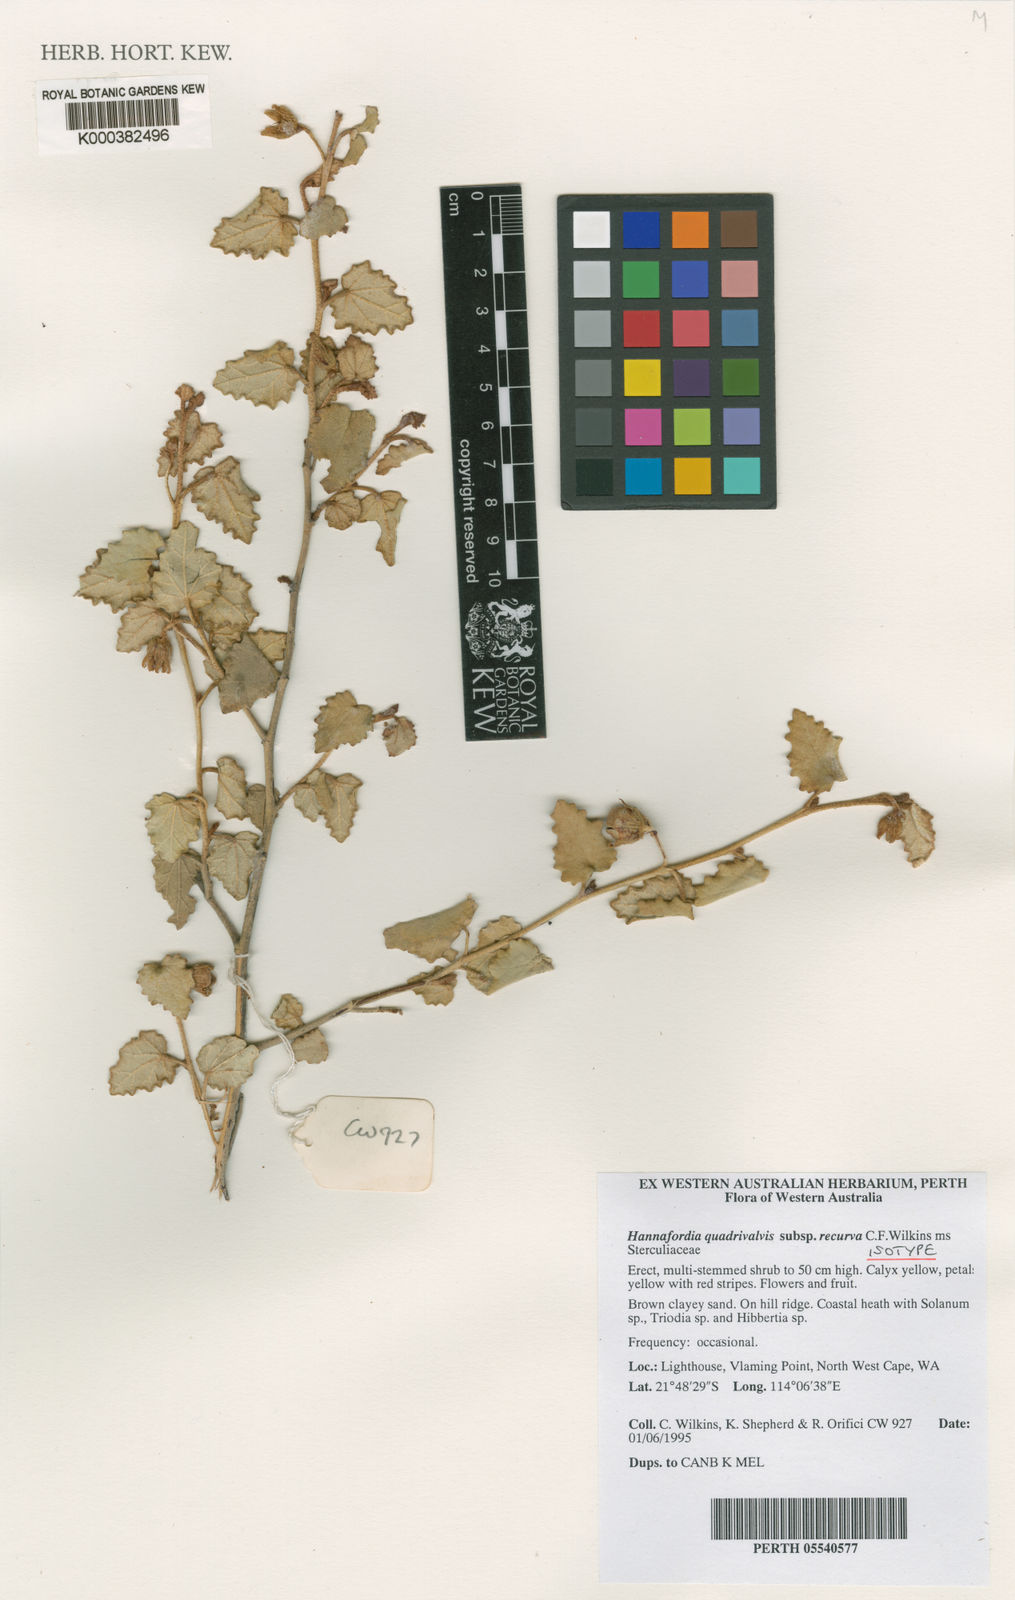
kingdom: Plantae
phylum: Tracheophyta
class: Magnoliopsida
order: Malvales
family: Malvaceae
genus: Hannafordia
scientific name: Hannafordia quadrivalvis
